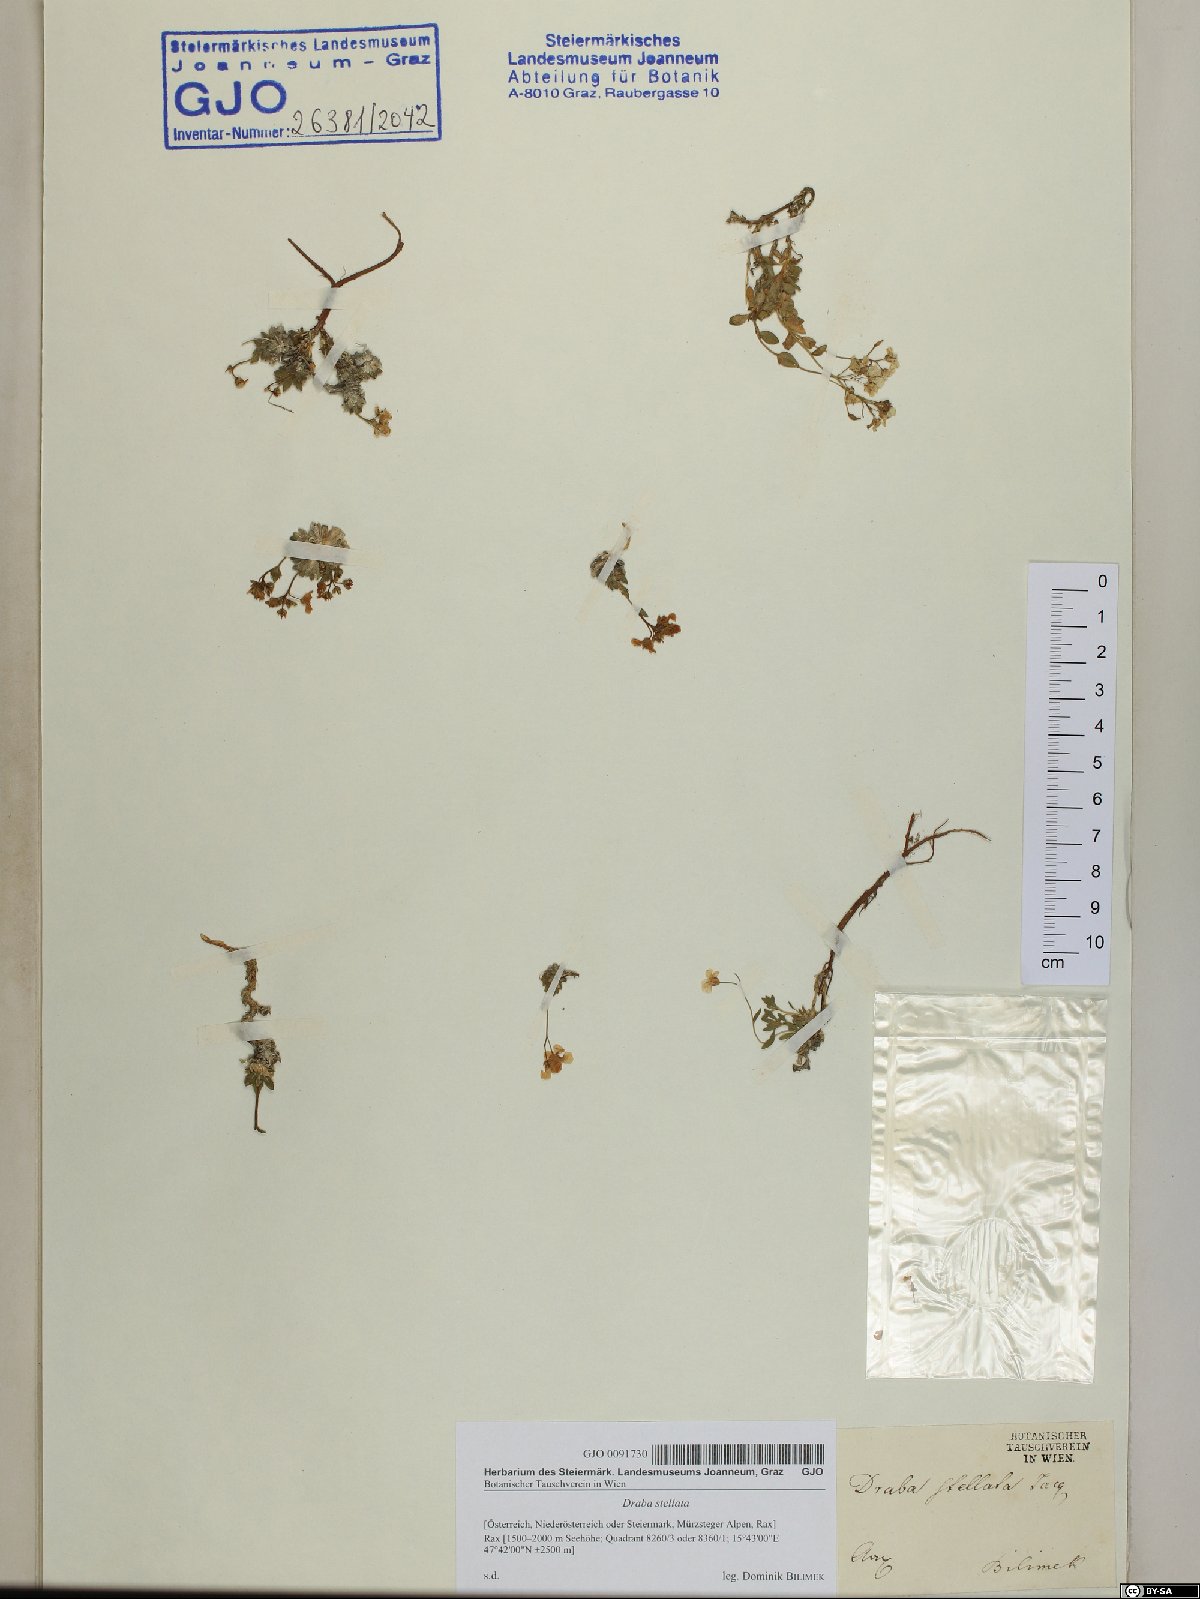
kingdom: Plantae
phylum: Tracheophyta
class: Magnoliopsida
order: Brassicales
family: Brassicaceae
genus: Draba
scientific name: Draba stellata
